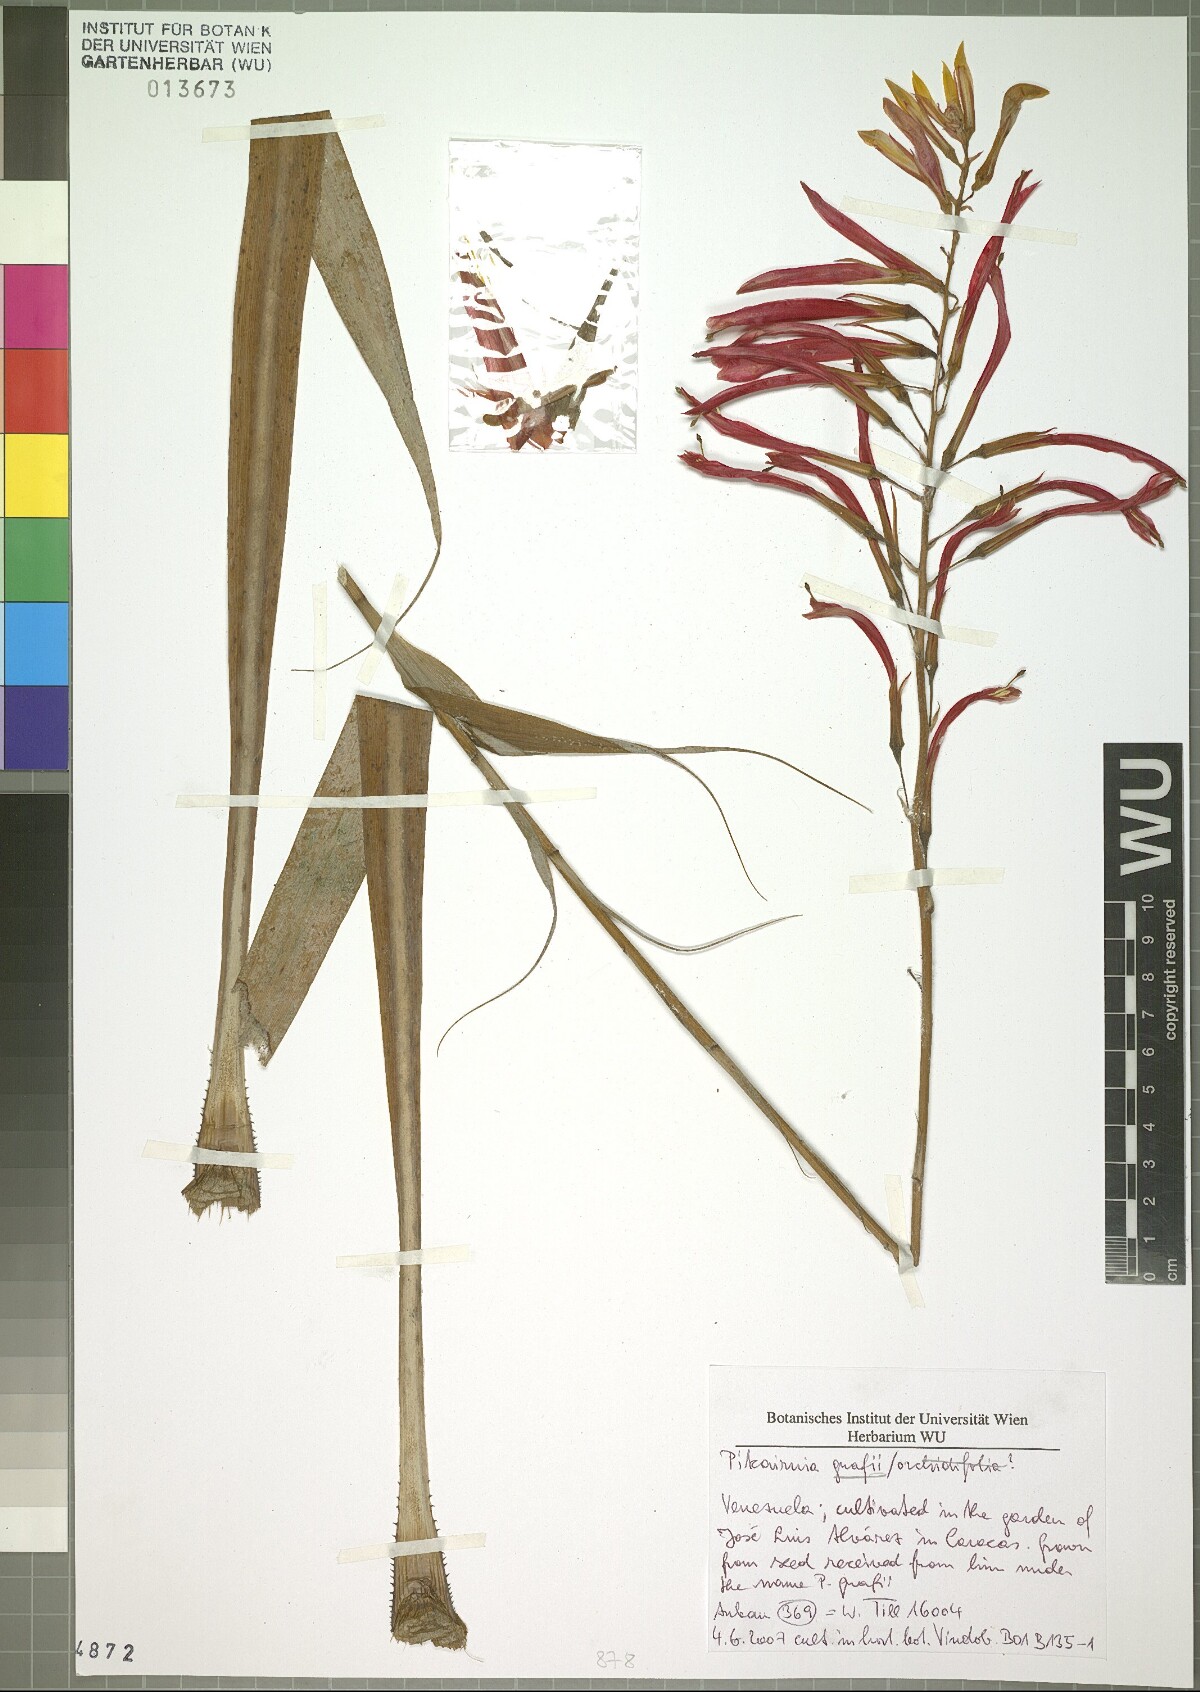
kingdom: Plantae
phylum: Tracheophyta
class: Liliopsida
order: Poales
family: Bromeliaceae
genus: Pitcairnia
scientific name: Pitcairnia orchidifolia
